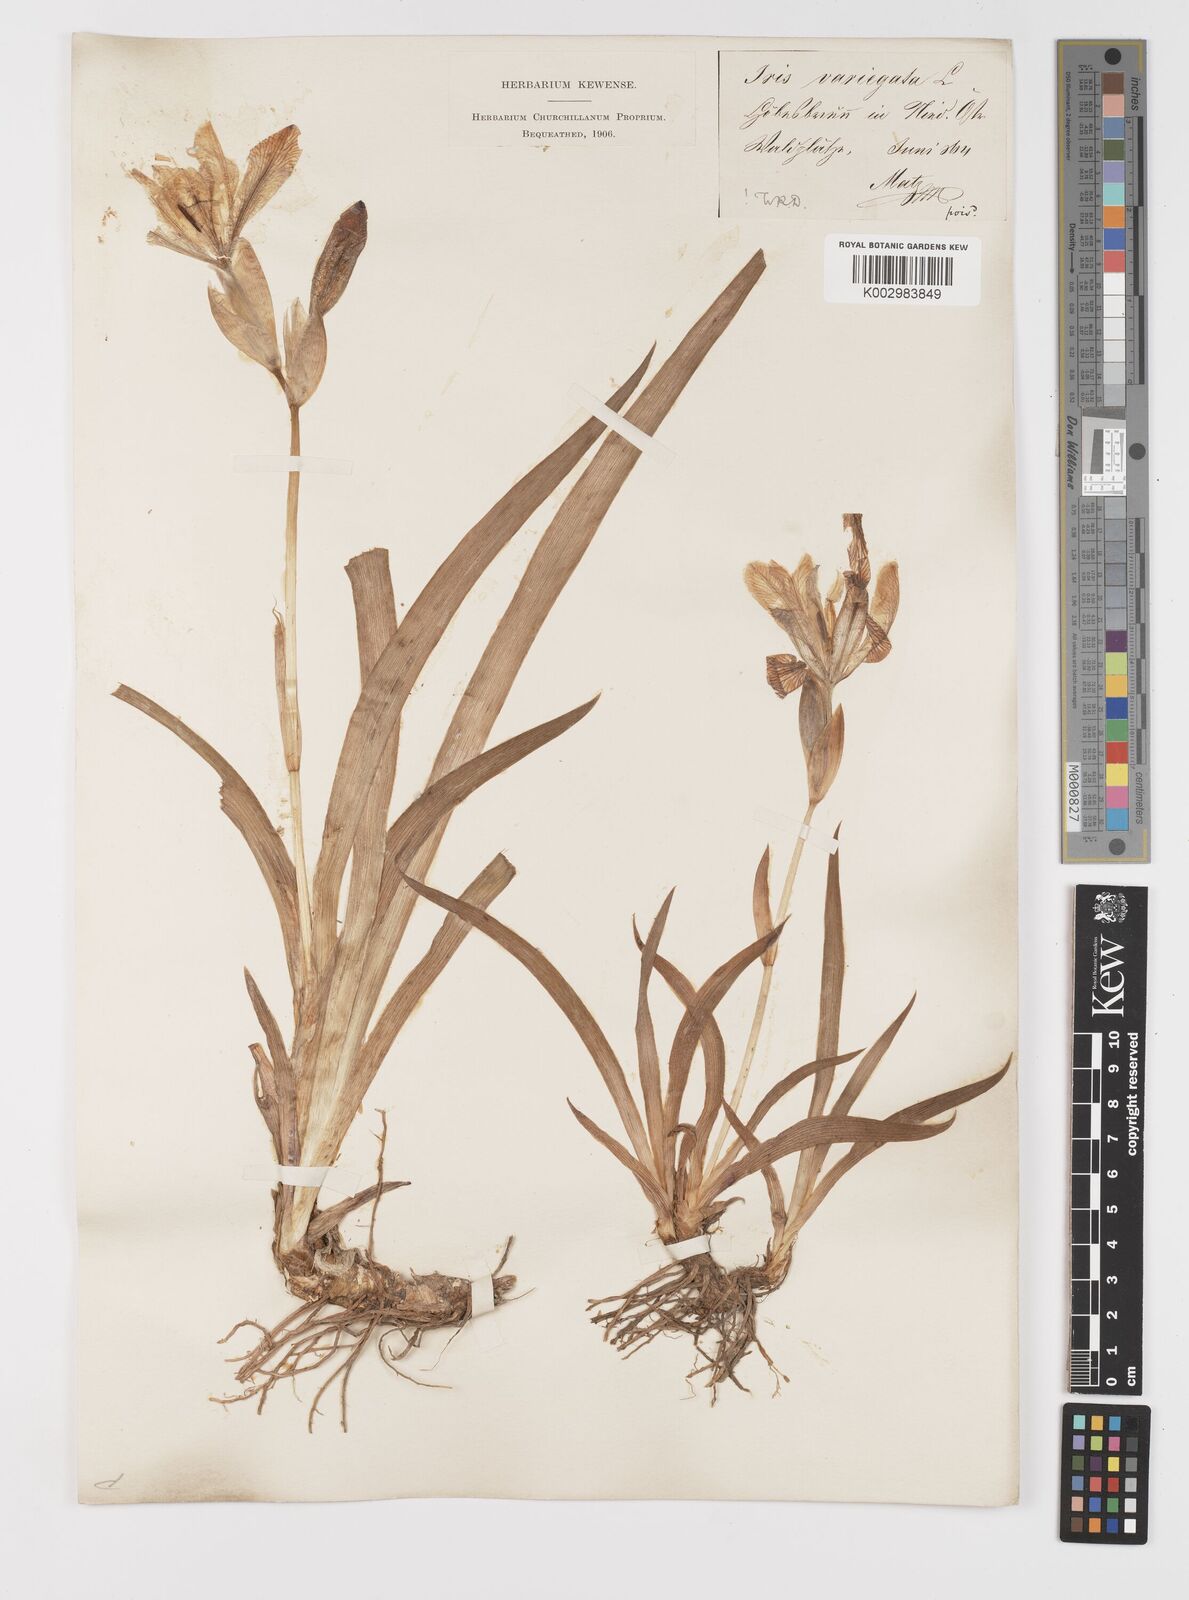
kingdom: Plantae
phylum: Tracheophyta
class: Liliopsida
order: Asparagales
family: Iridaceae
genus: Iris
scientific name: Iris variegata
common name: Hungarian iris
